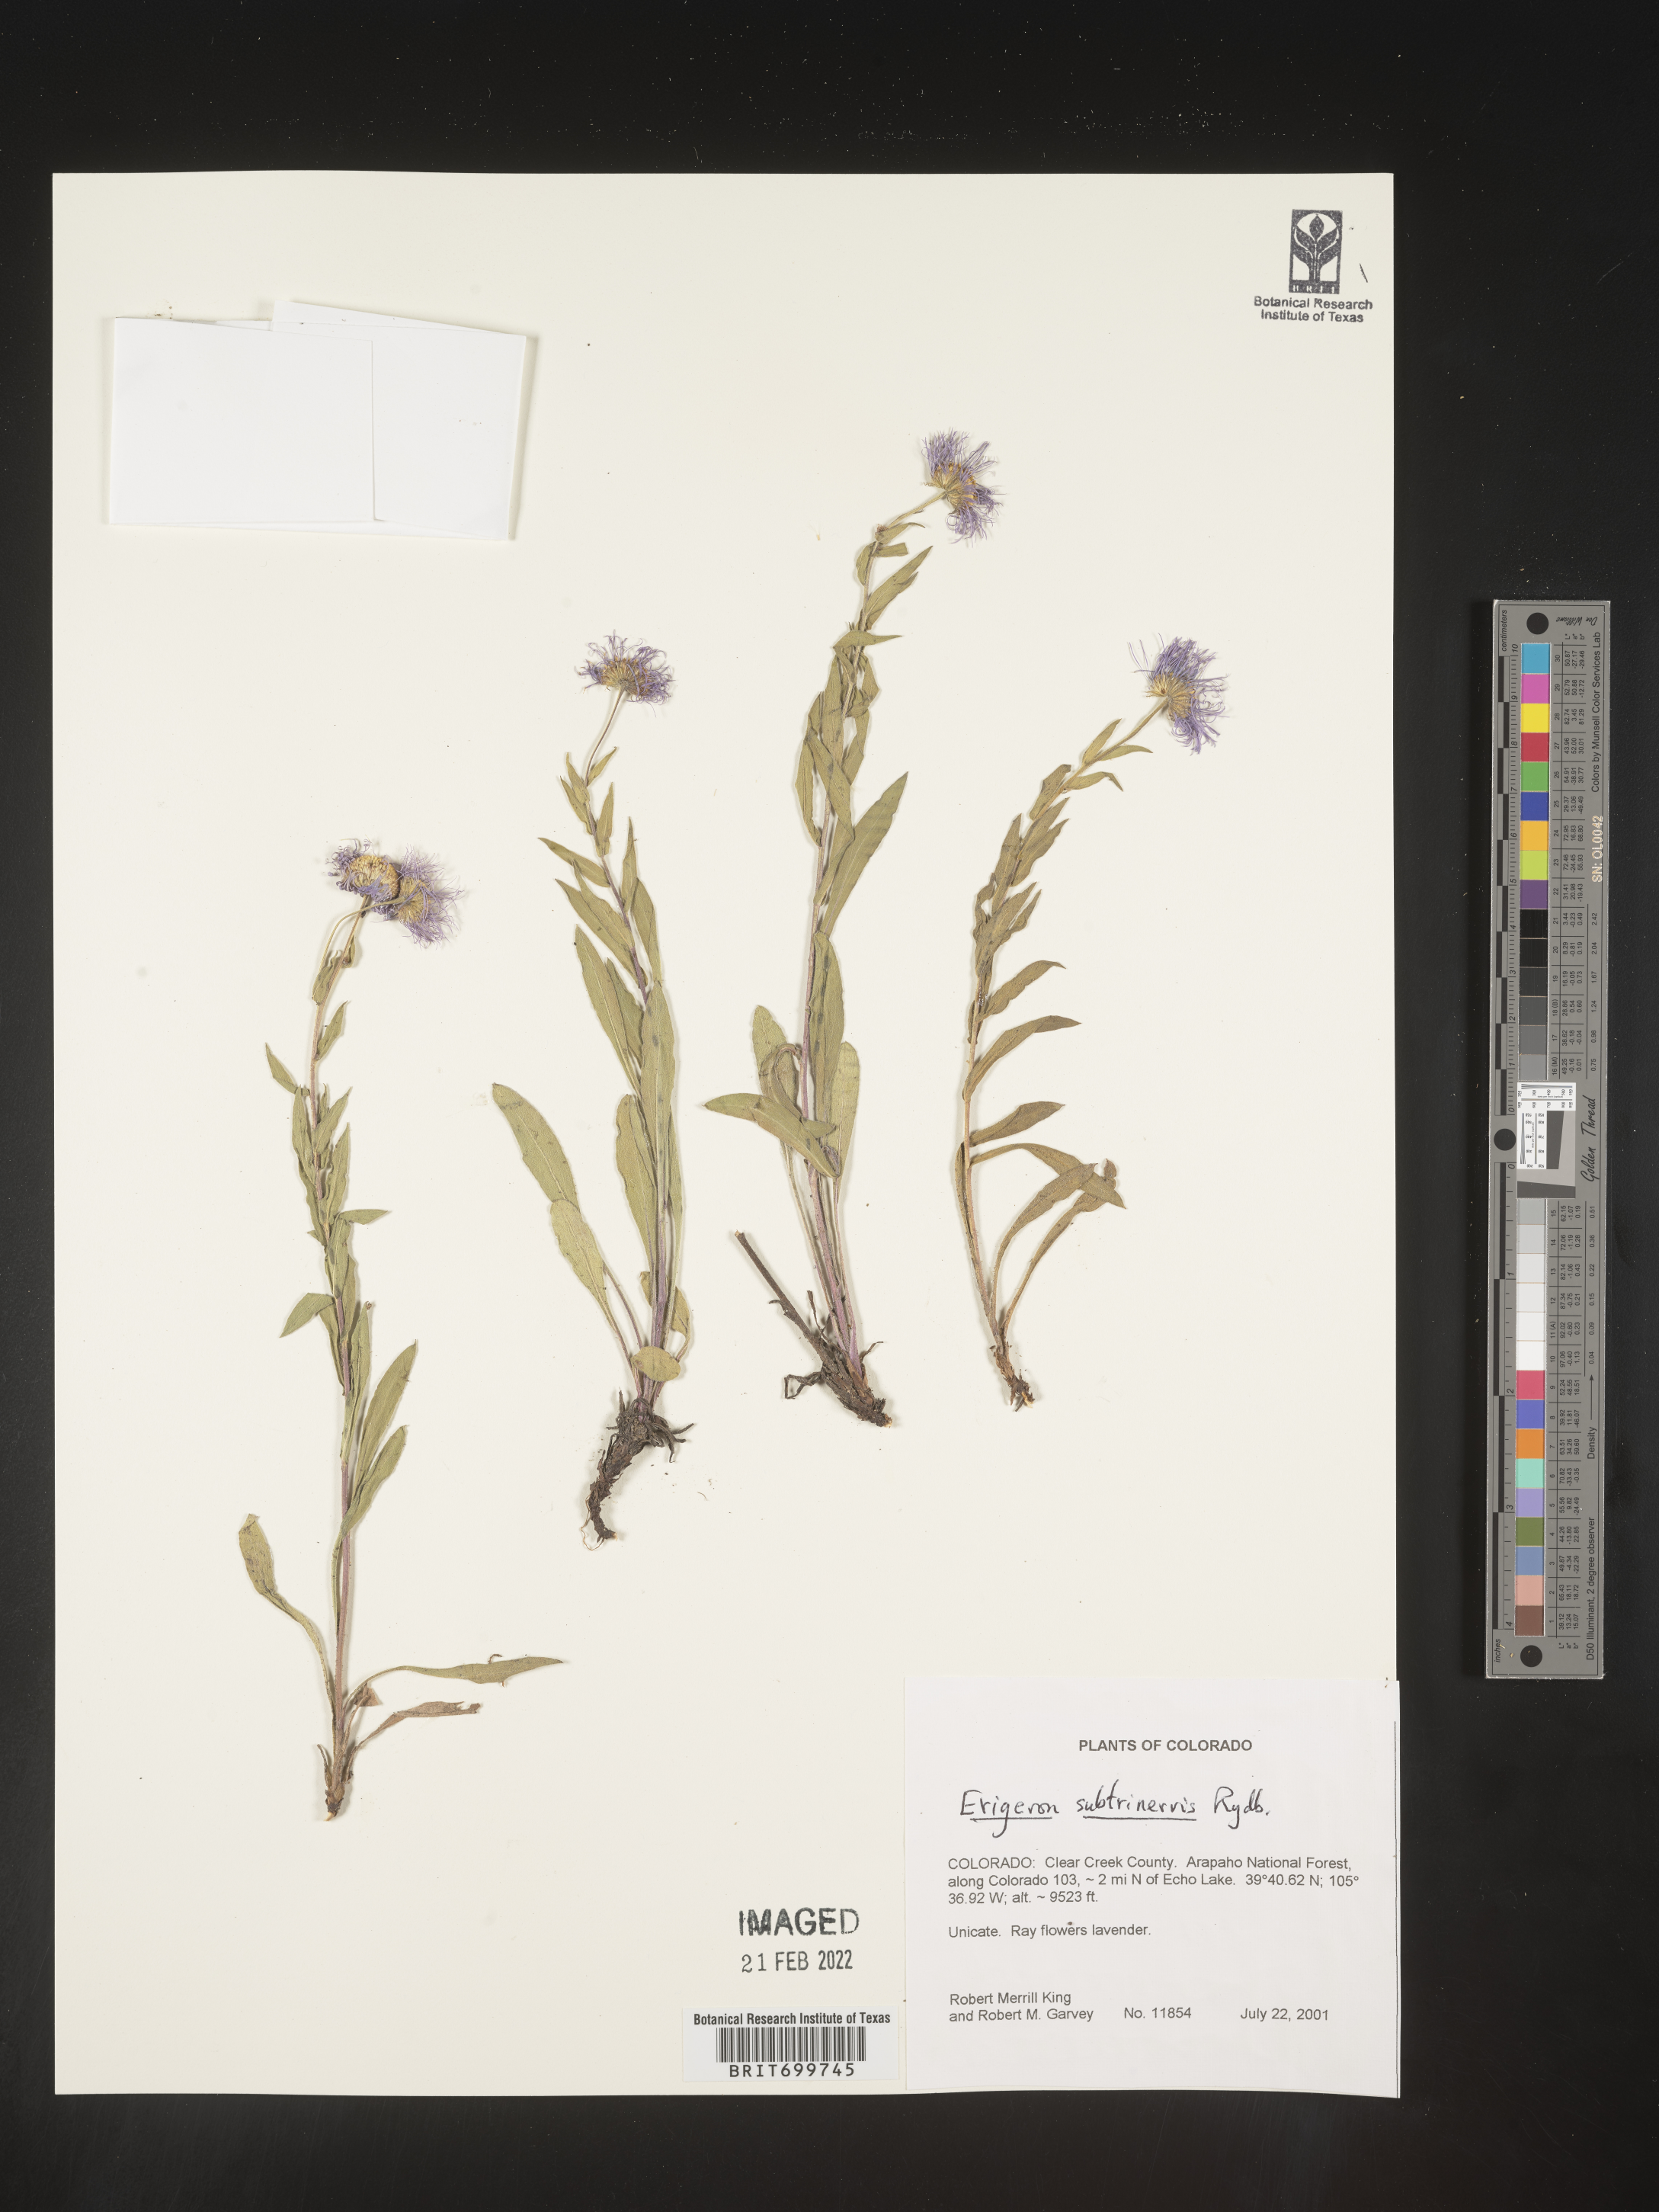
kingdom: Plantae
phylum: Tracheophyta
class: Magnoliopsida
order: Asterales
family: Asteraceae
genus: Erigeron
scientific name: Erigeron subtrinervis
